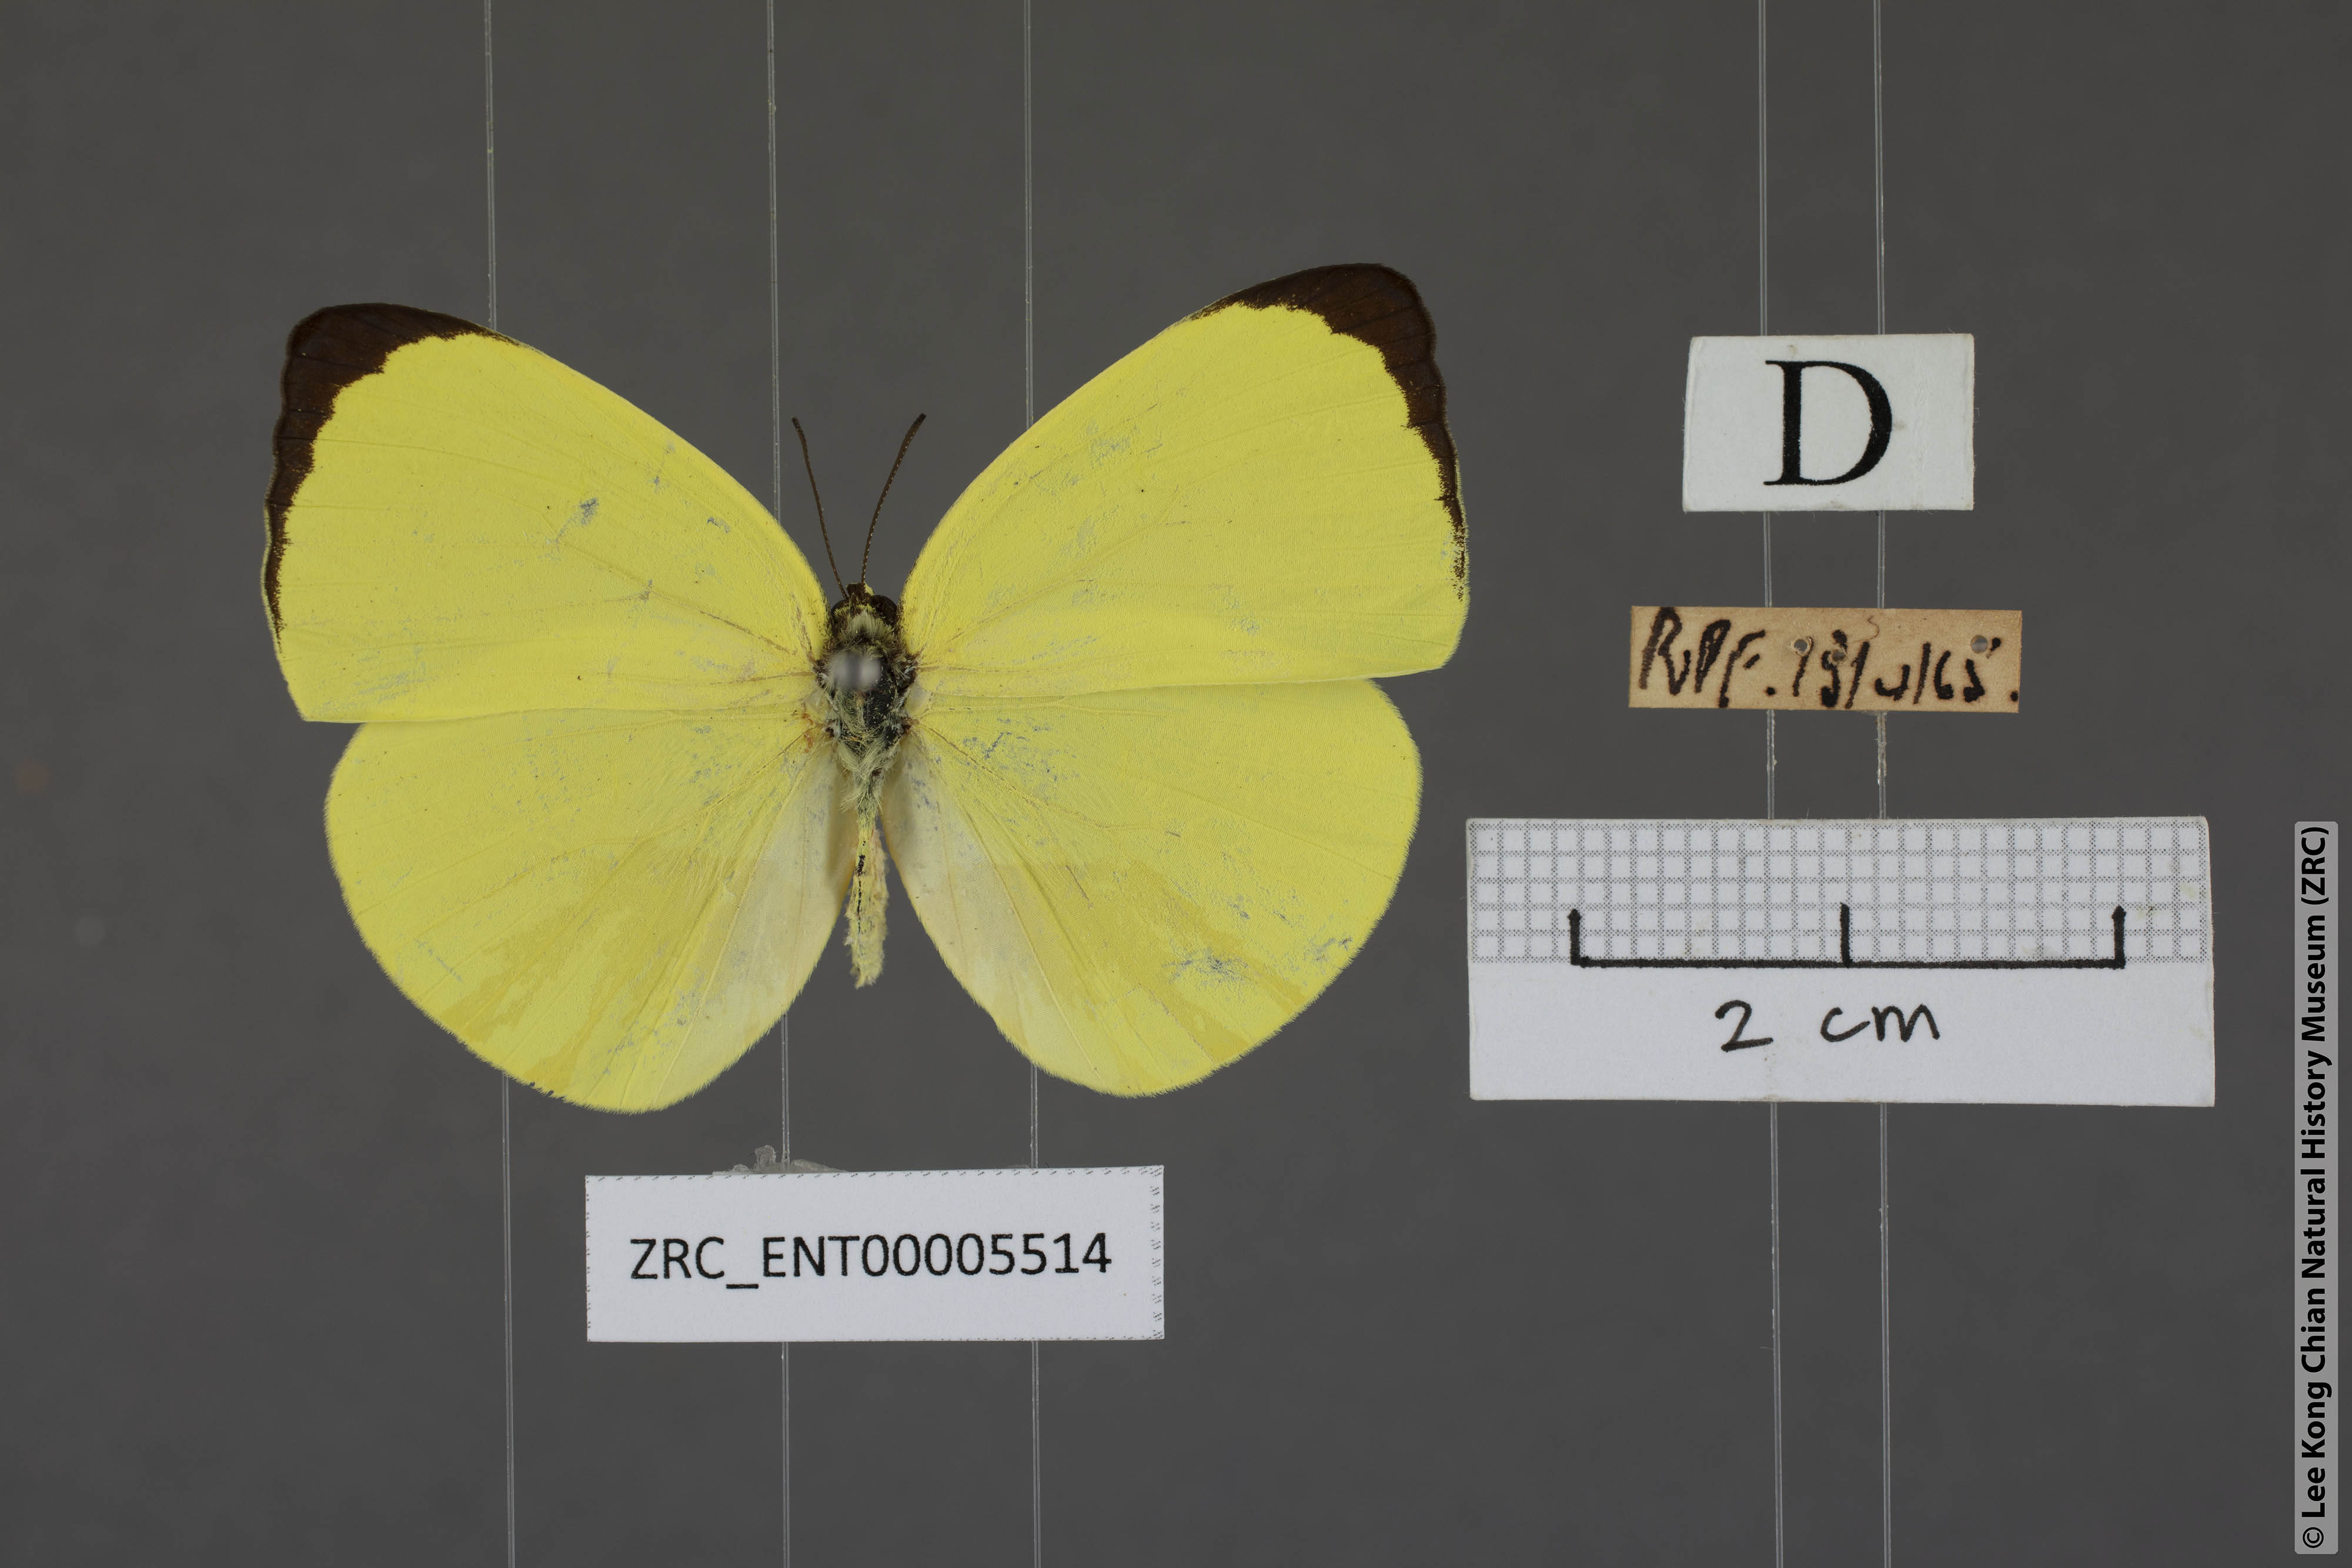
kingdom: Animalia
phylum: Arthropoda
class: Insecta
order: Lepidoptera
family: Pieridae
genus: Gandaca
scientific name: Gandaca harina
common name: Tree yellow
